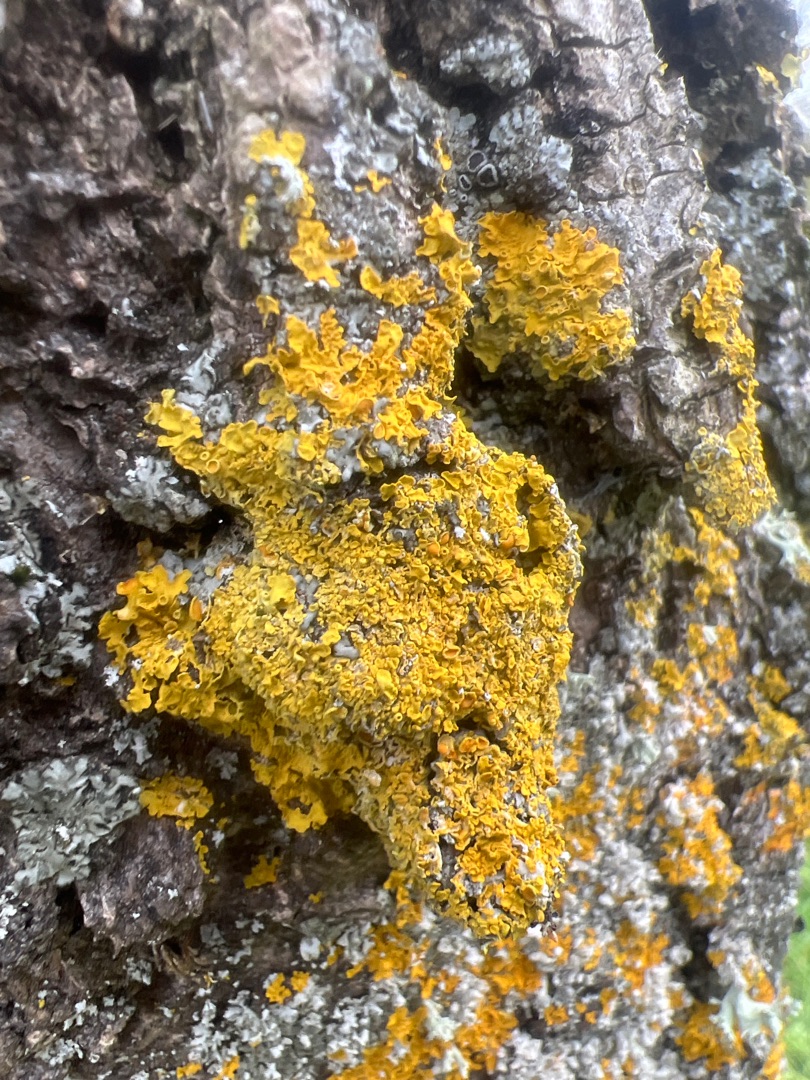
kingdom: Fungi
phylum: Ascomycota
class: Lecanoromycetes
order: Teloschistales
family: Teloschistaceae
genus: Xanthoria
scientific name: Xanthoria parietina
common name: Almindelig væggelav
